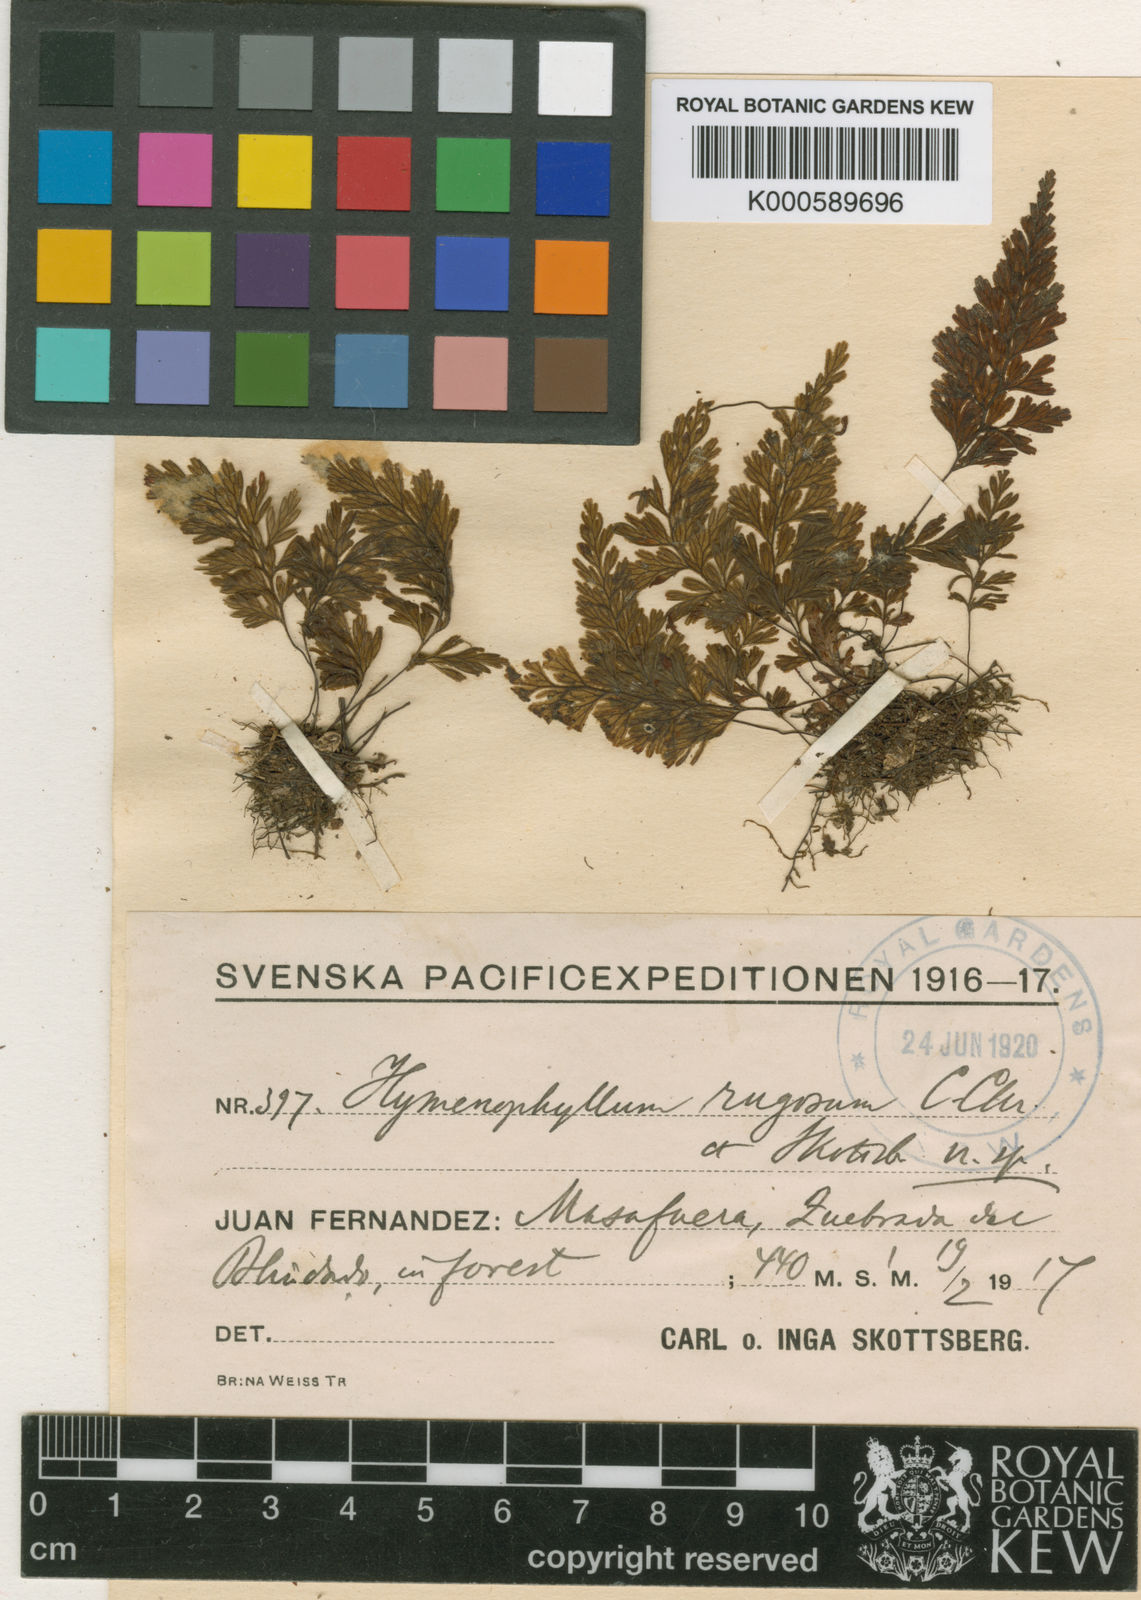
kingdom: Plantae
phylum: Tracheophyta
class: Polypodiopsida
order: Hymenophyllales
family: Hymenophyllaceae
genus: Hymenophyllum
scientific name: Hymenophyllum rugosum
